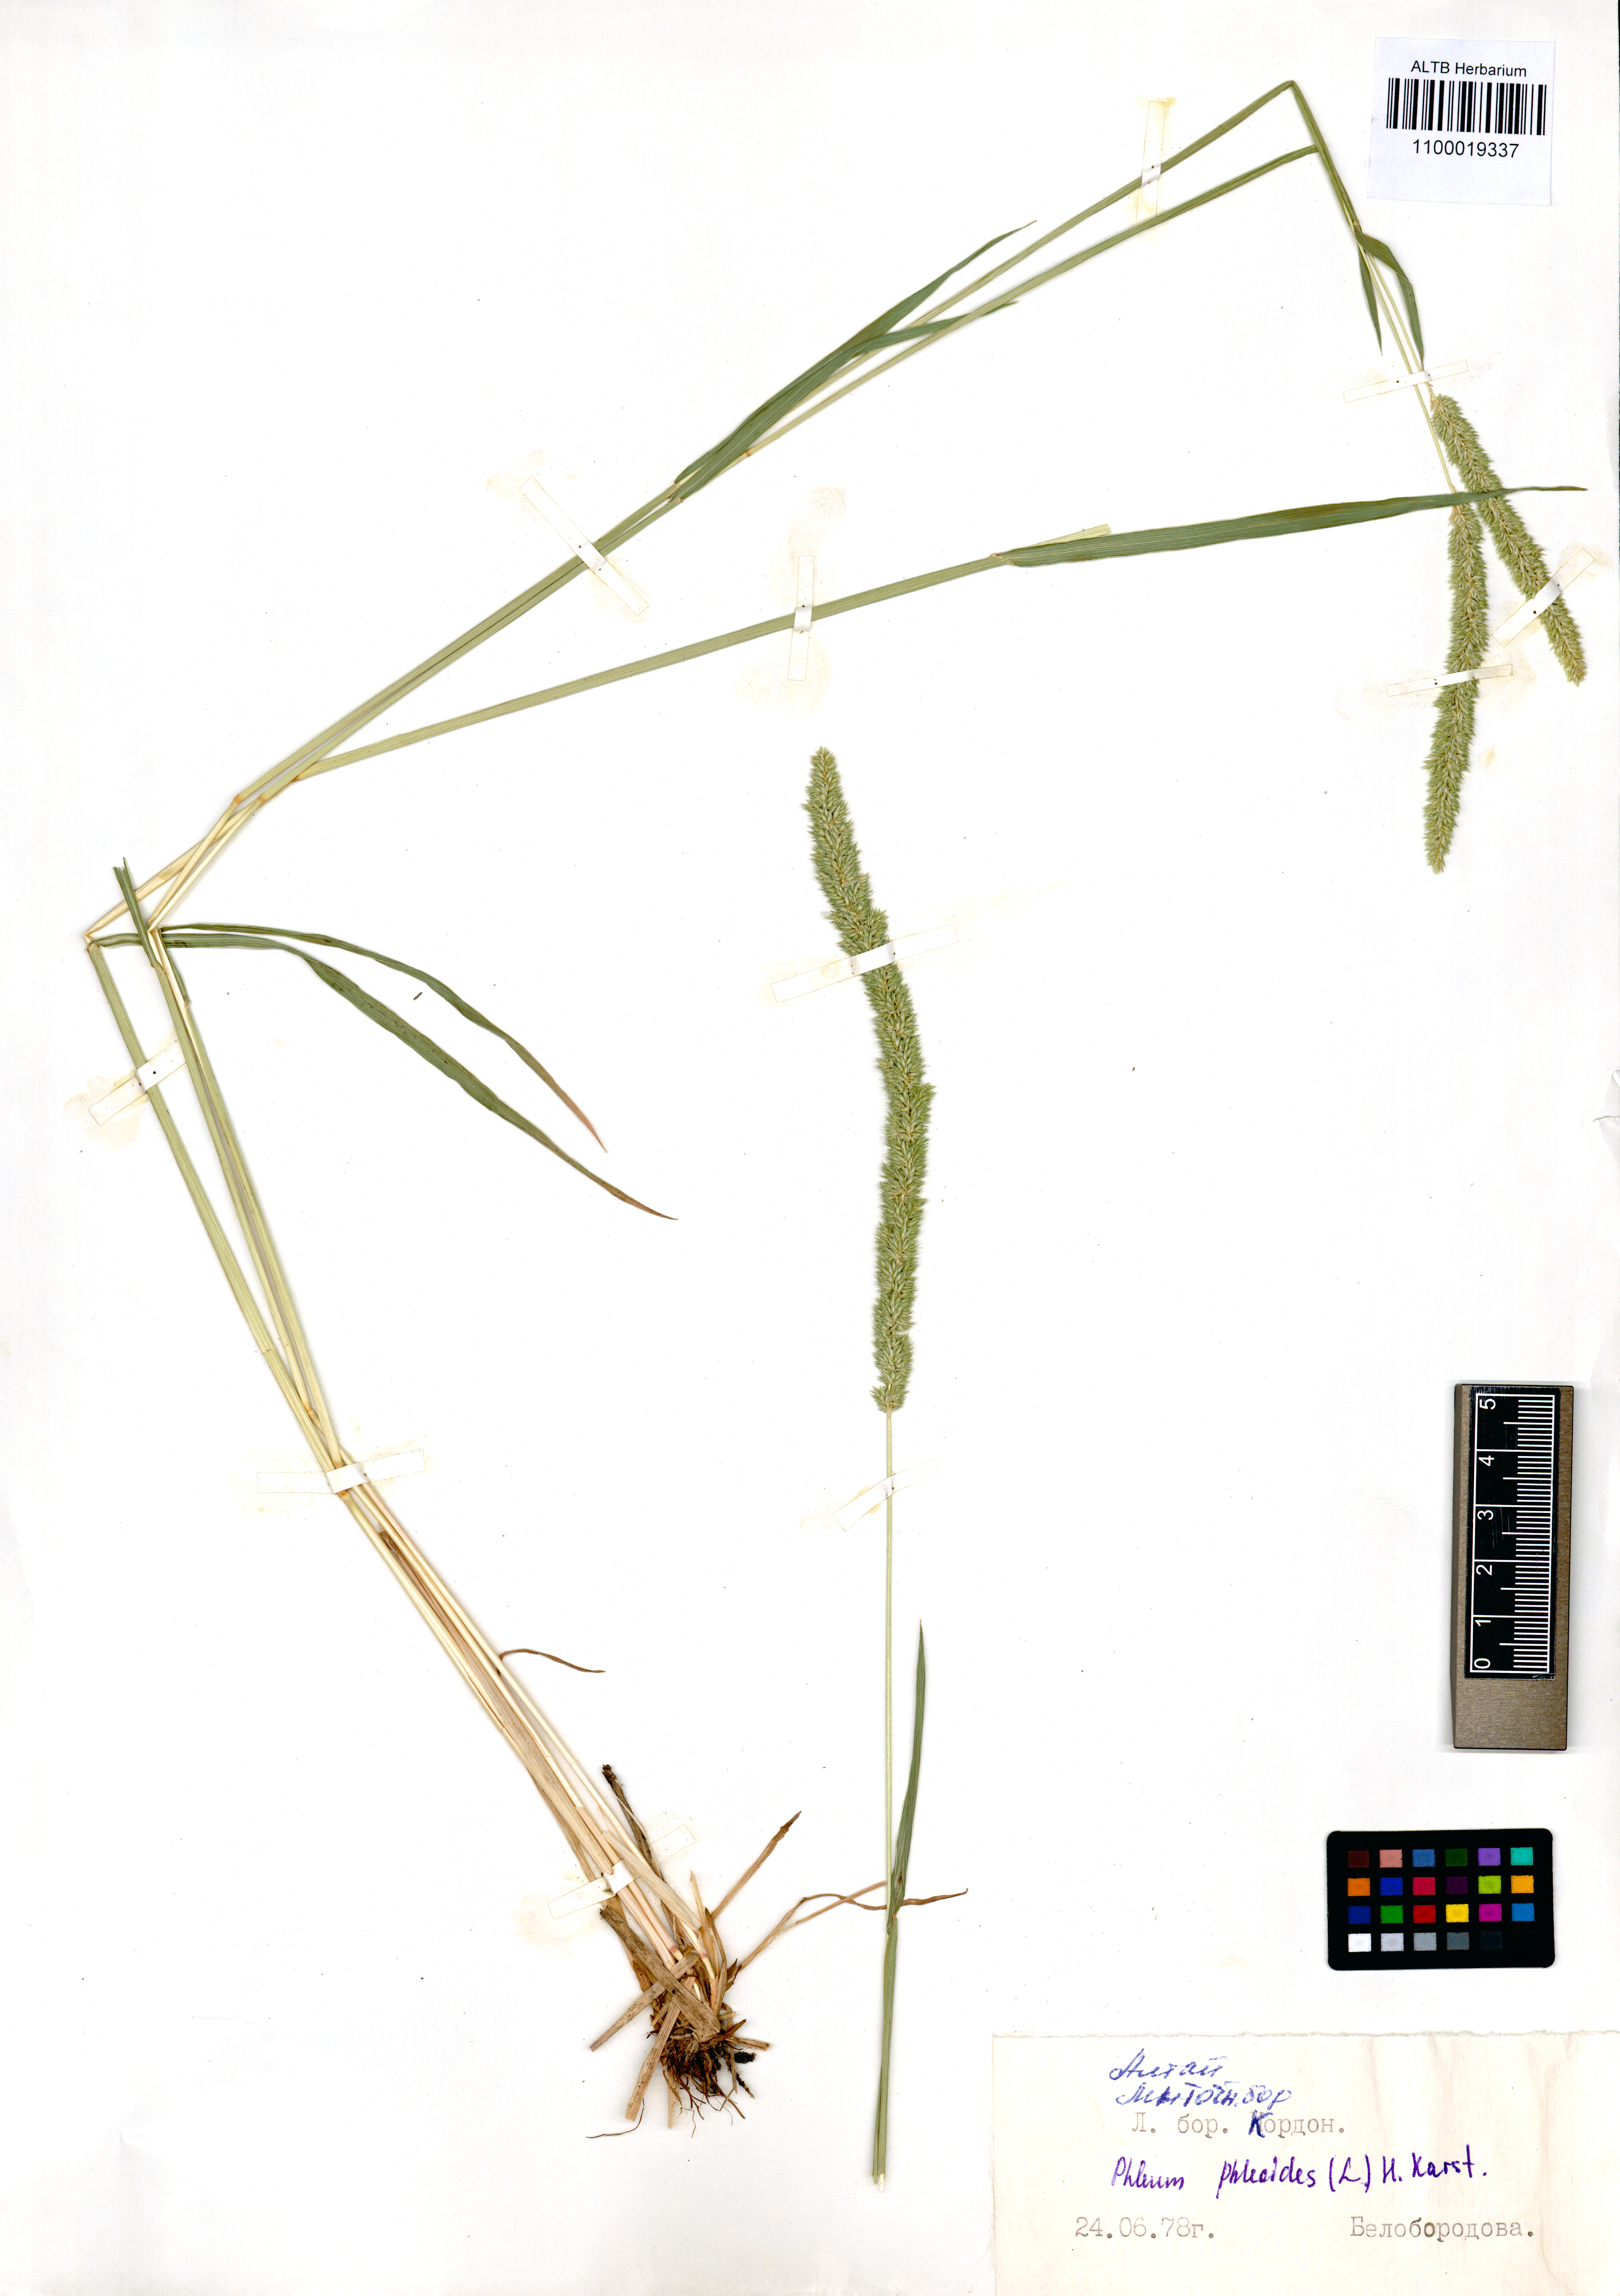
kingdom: Plantae
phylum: Tracheophyta
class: Liliopsida
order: Poales
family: Poaceae
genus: Phleum
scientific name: Phleum phleoides
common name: Purple-stem cat's-tail
